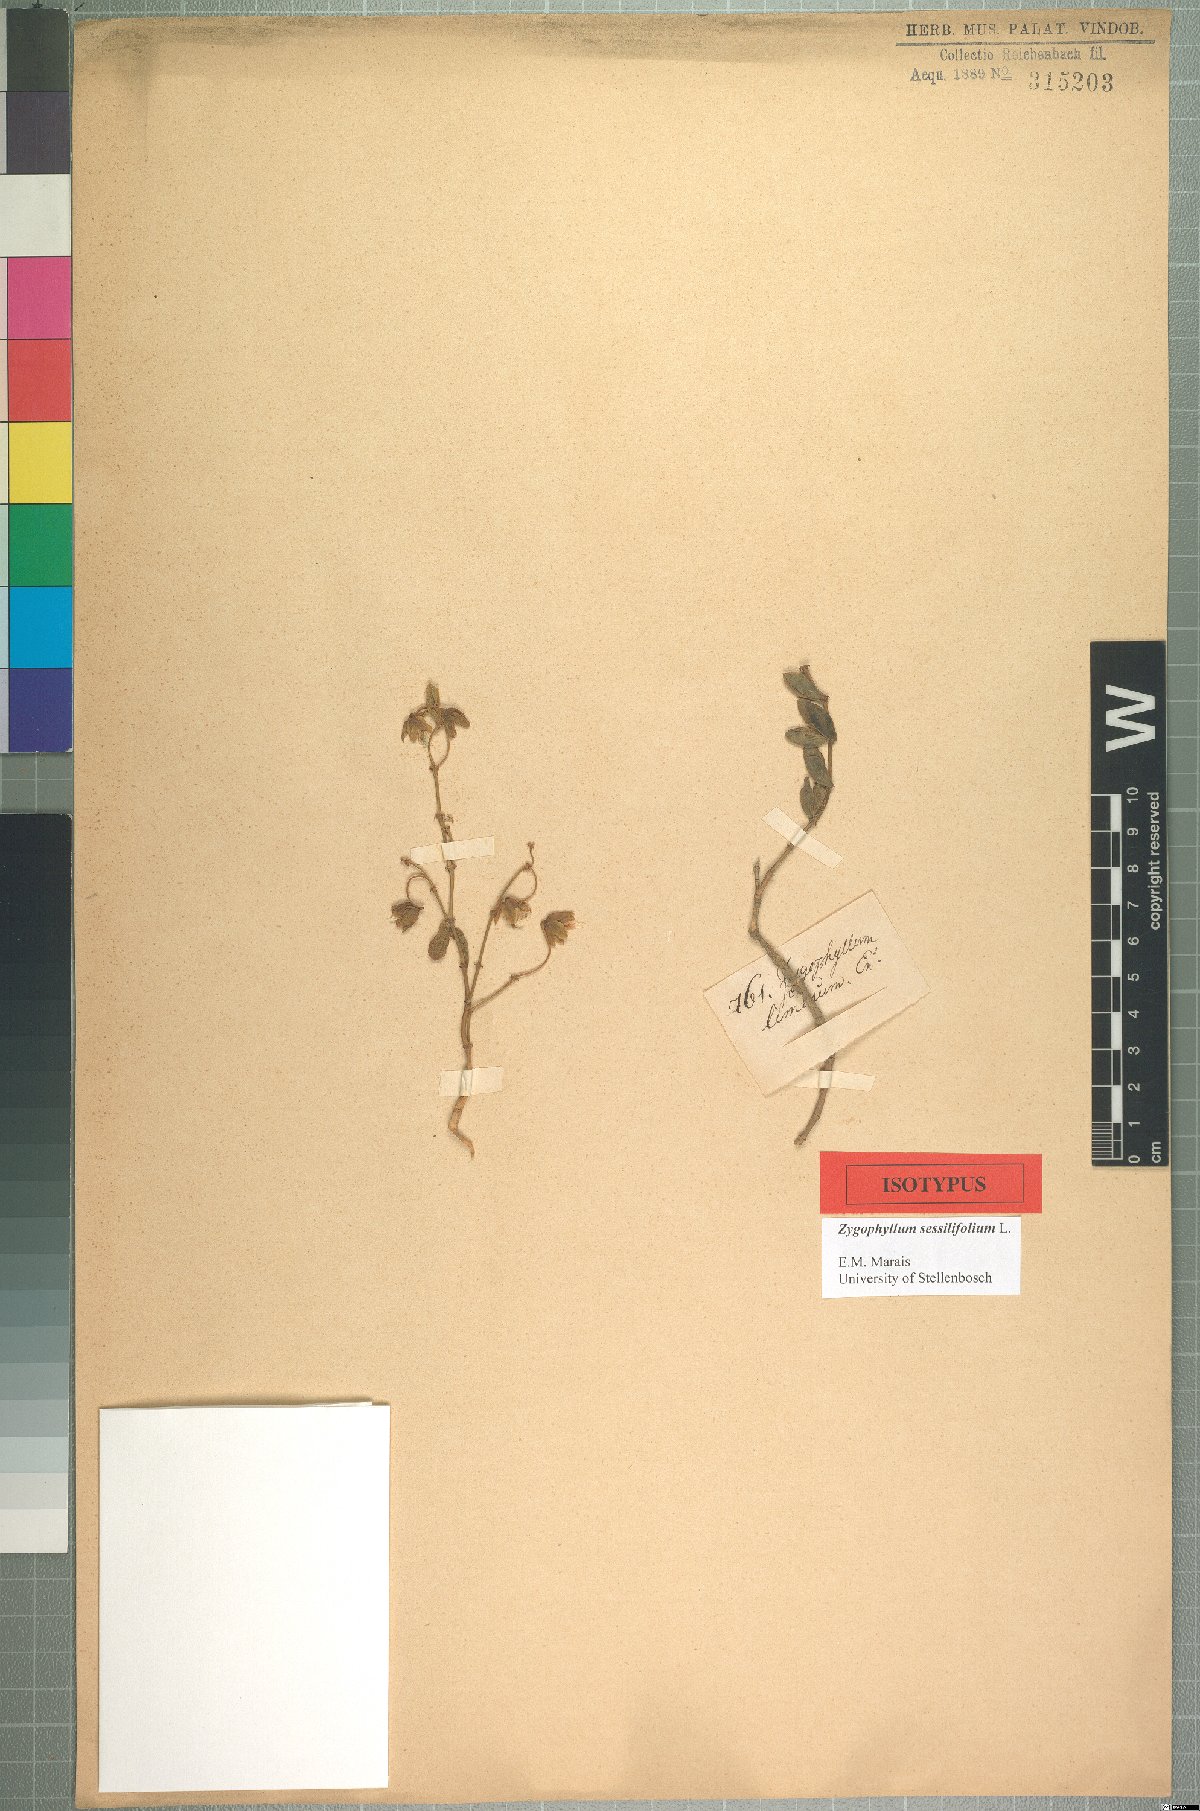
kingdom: Plantae
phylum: Tracheophyta
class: Magnoliopsida
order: Zygophyllales
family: Zygophyllaceae
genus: Roepera
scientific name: Roepera sessilifolia
